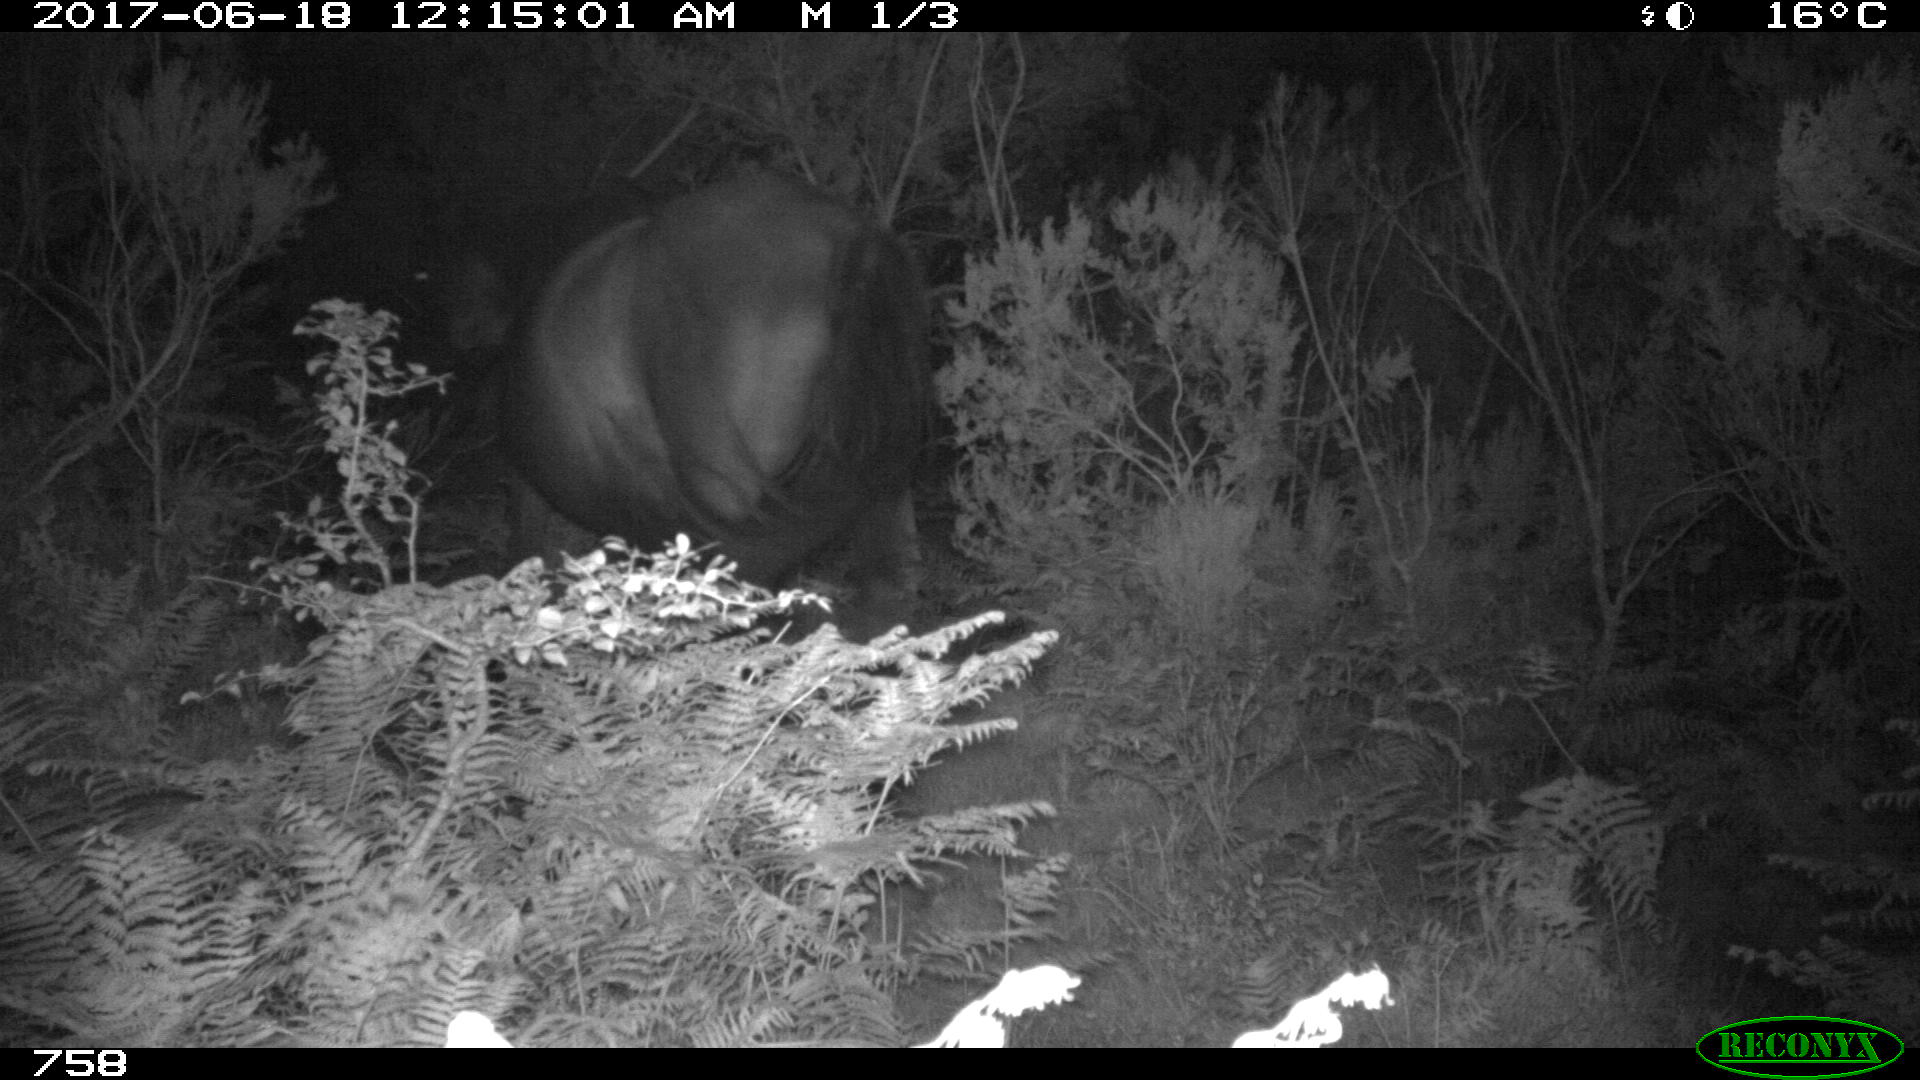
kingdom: Animalia
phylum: Chordata
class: Mammalia
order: Perissodactyla
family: Equidae
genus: Equus
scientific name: Equus caballus
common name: Horse
